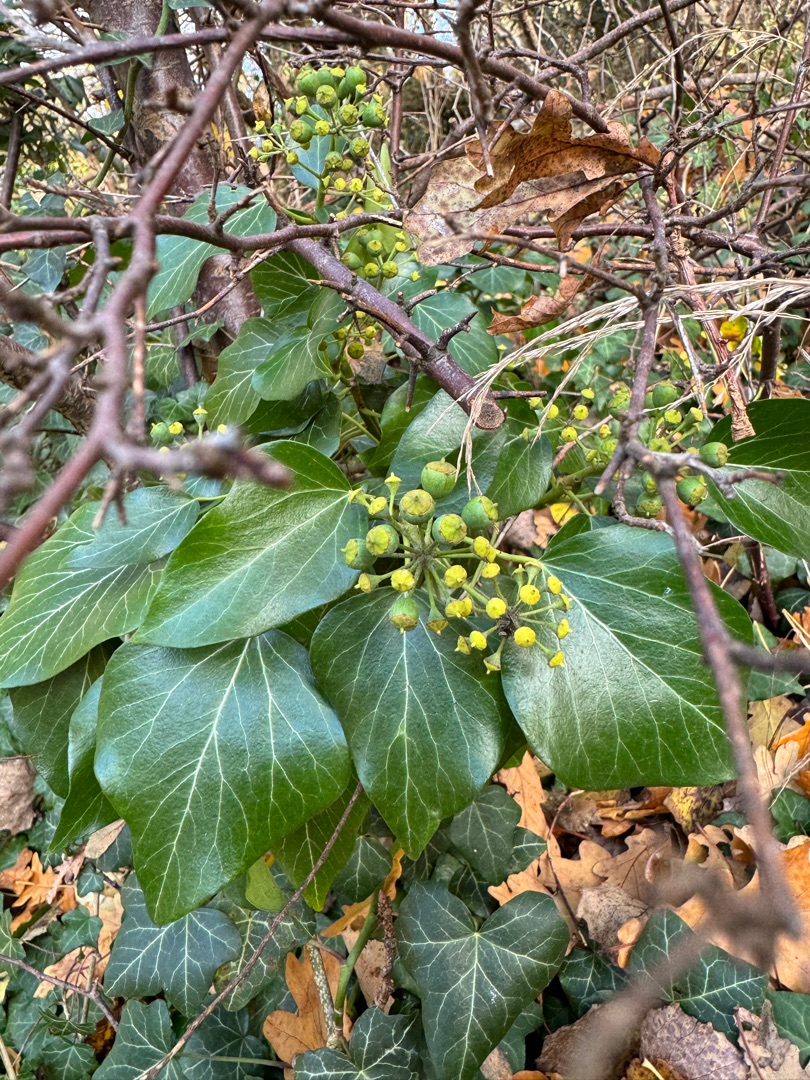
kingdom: Plantae
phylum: Tracheophyta
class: Magnoliopsida
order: Apiales
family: Araliaceae
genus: Hedera
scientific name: Hedera helix
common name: Vedbend
